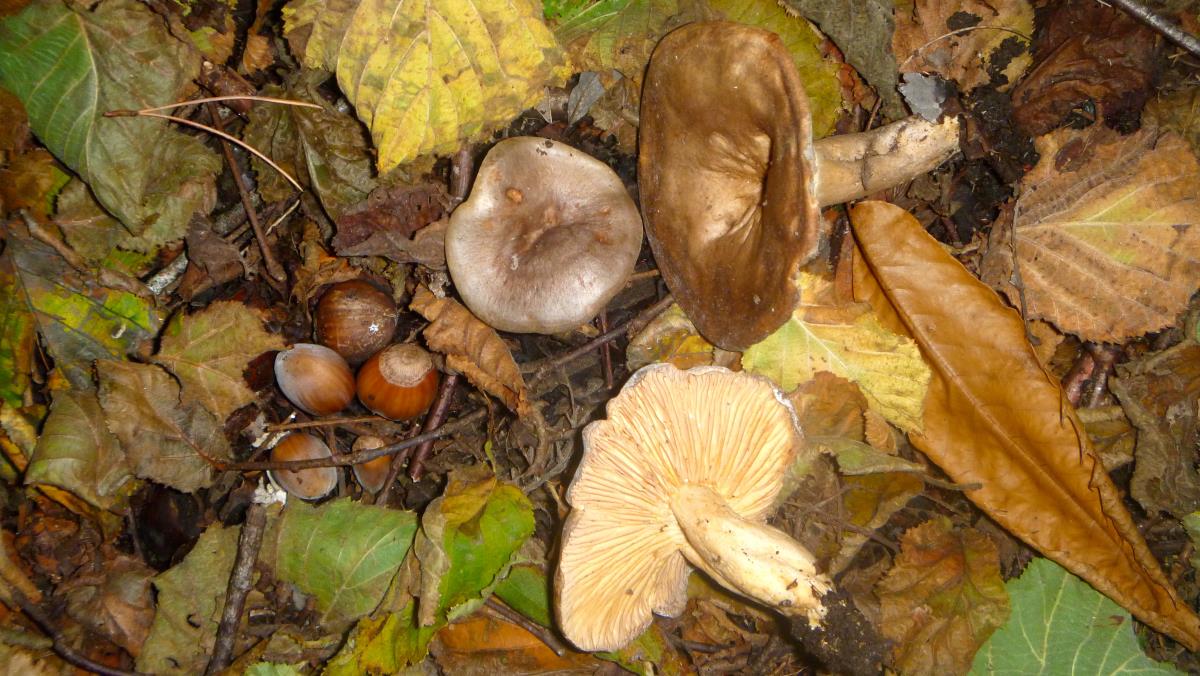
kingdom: Fungi
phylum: Basidiomycota
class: Agaricomycetes
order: Russulales
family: Russulaceae
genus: Lactarius
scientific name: Lactarius pyrogalus
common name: Fiery milkcap
